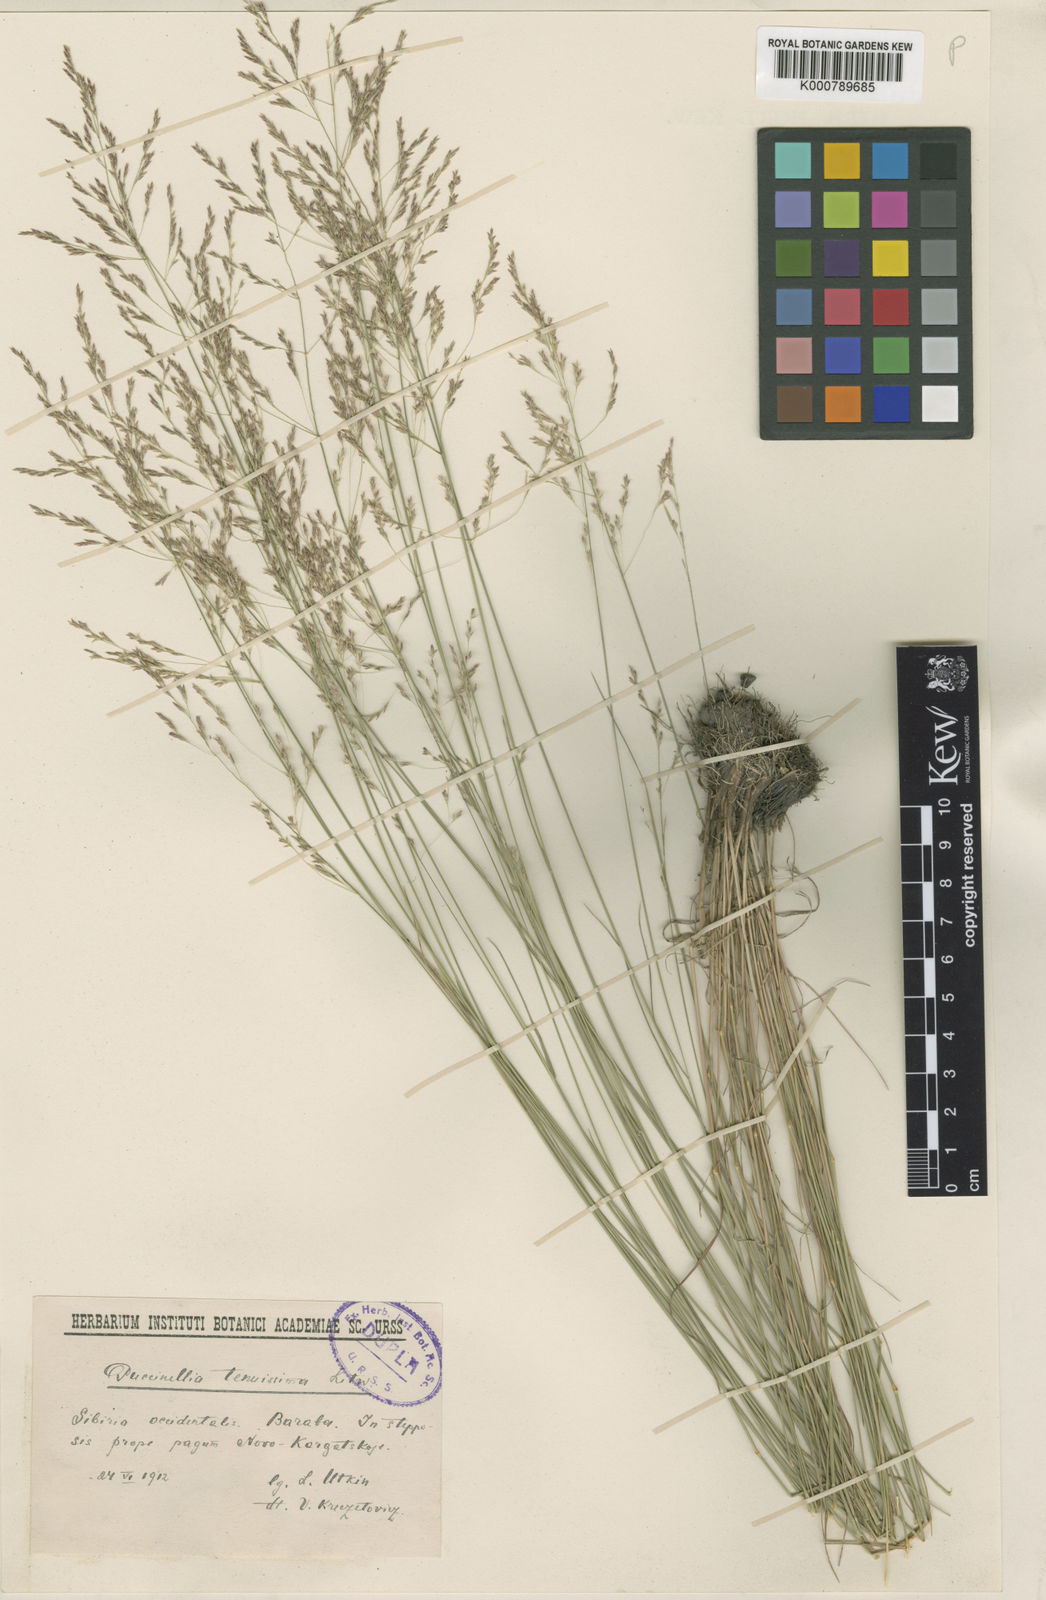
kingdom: Plantae
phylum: Tracheophyta
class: Liliopsida
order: Poales
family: Poaceae
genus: Puccinellia
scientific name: Puccinellia tenuissima
